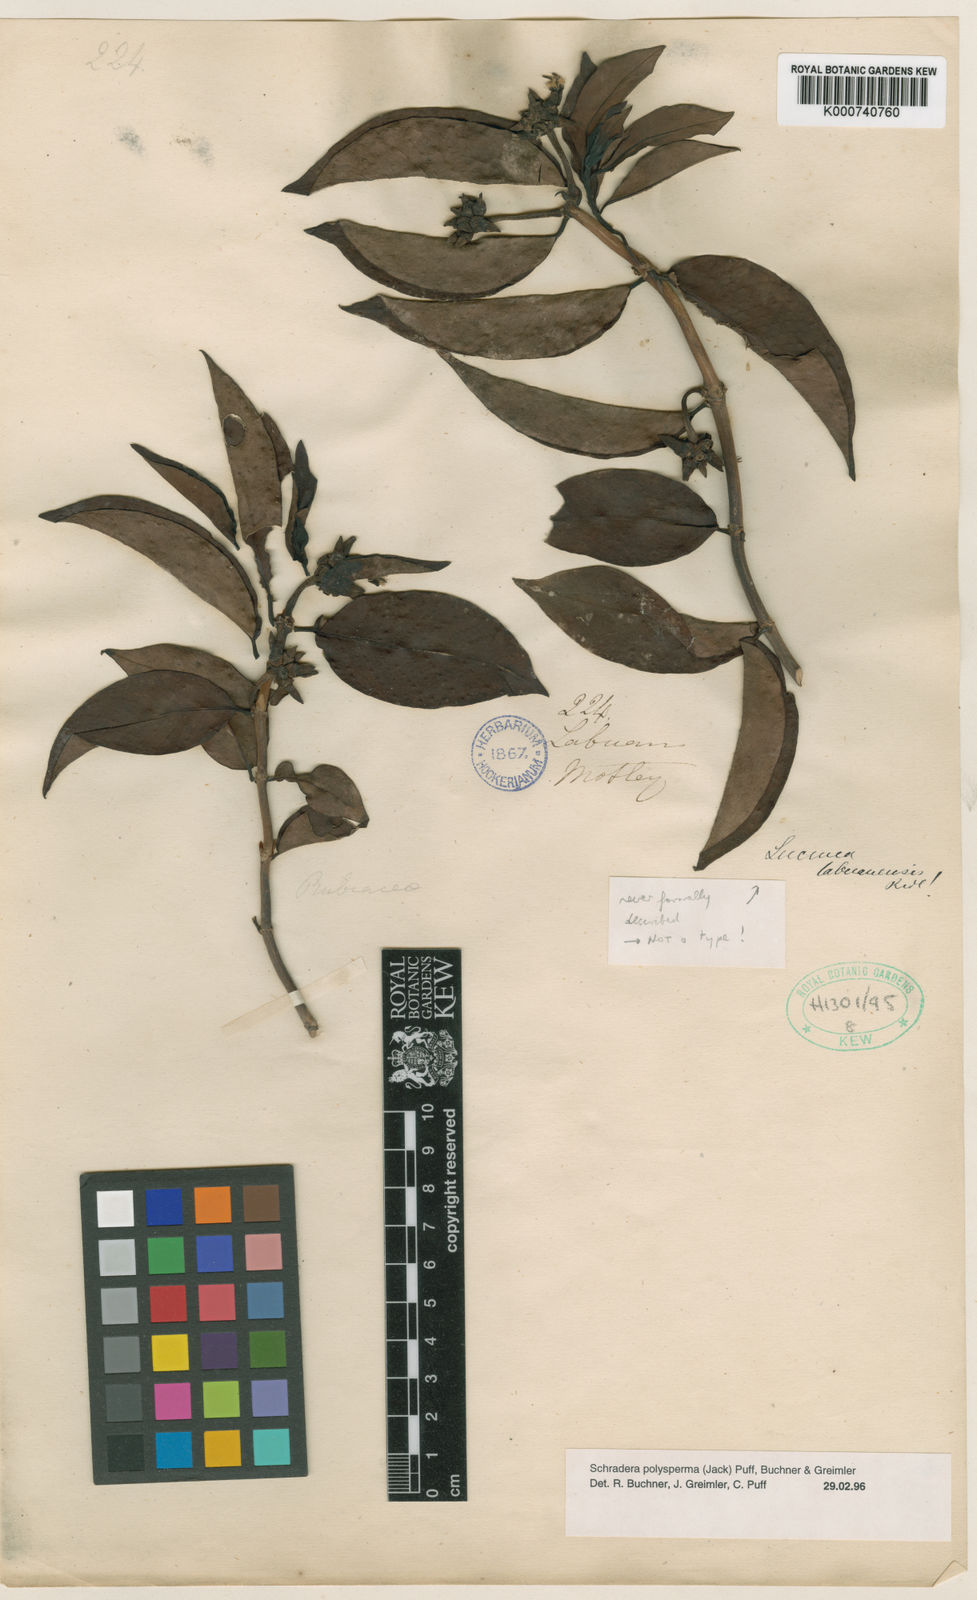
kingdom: Plantae
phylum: Tracheophyta
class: Magnoliopsida
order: Gentianales
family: Rubiaceae
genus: Schradera
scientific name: Schradera polysperma
